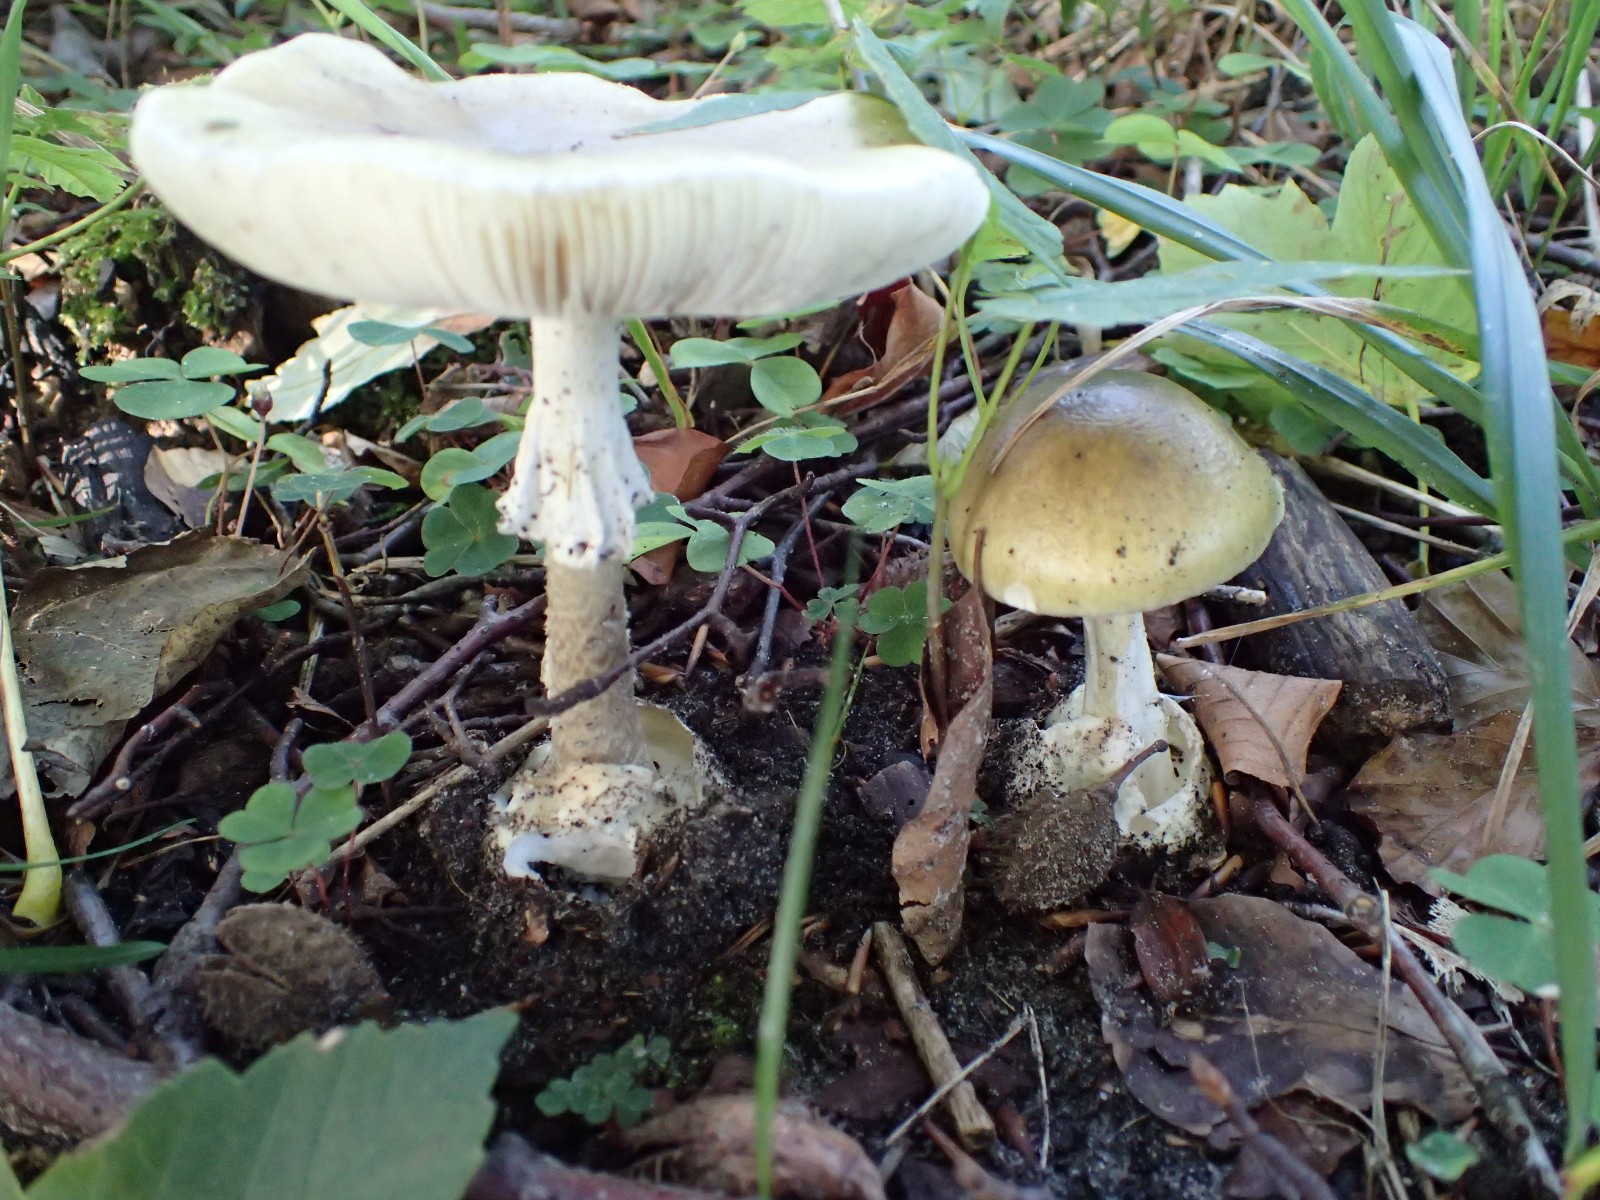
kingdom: Fungi
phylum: Basidiomycota
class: Agaricomycetes
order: Agaricales
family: Amanitaceae
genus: Amanita
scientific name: Amanita phalloides
